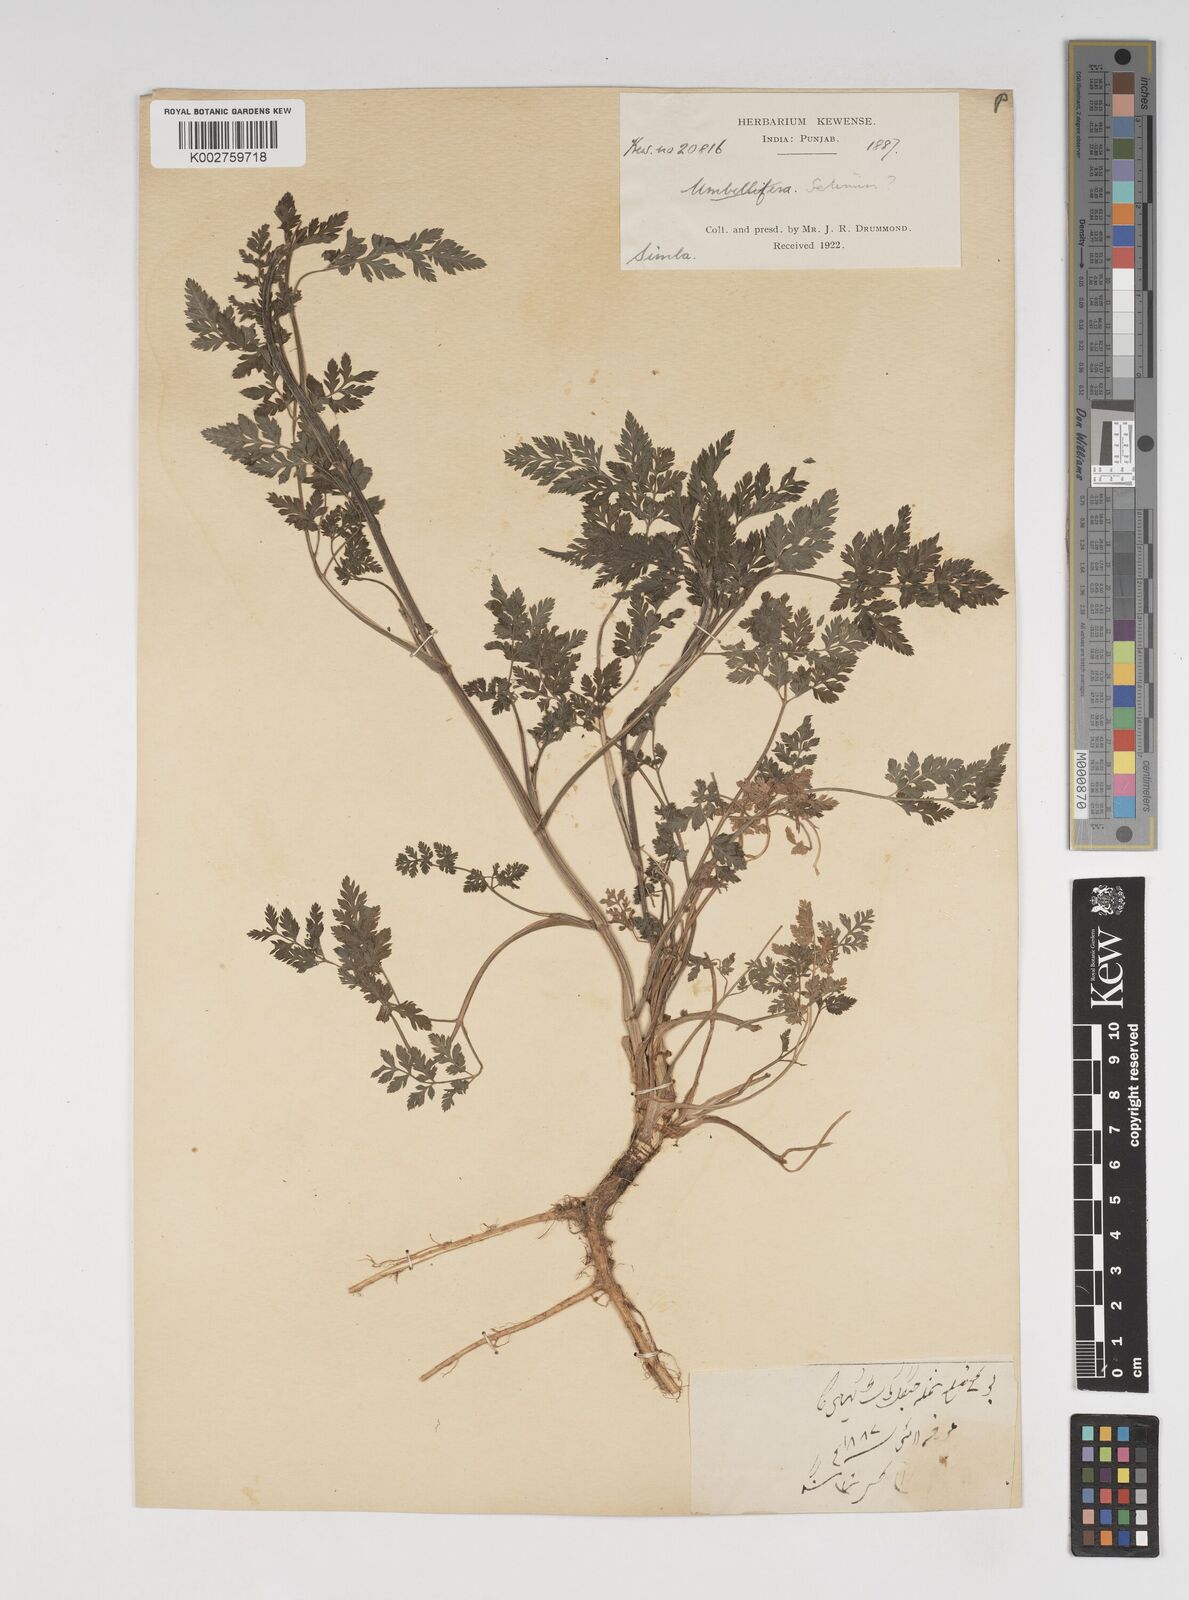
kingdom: Plantae
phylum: Tracheophyta
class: Magnoliopsida
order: Apiales
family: Apiaceae
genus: Selinum
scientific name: Selinum
